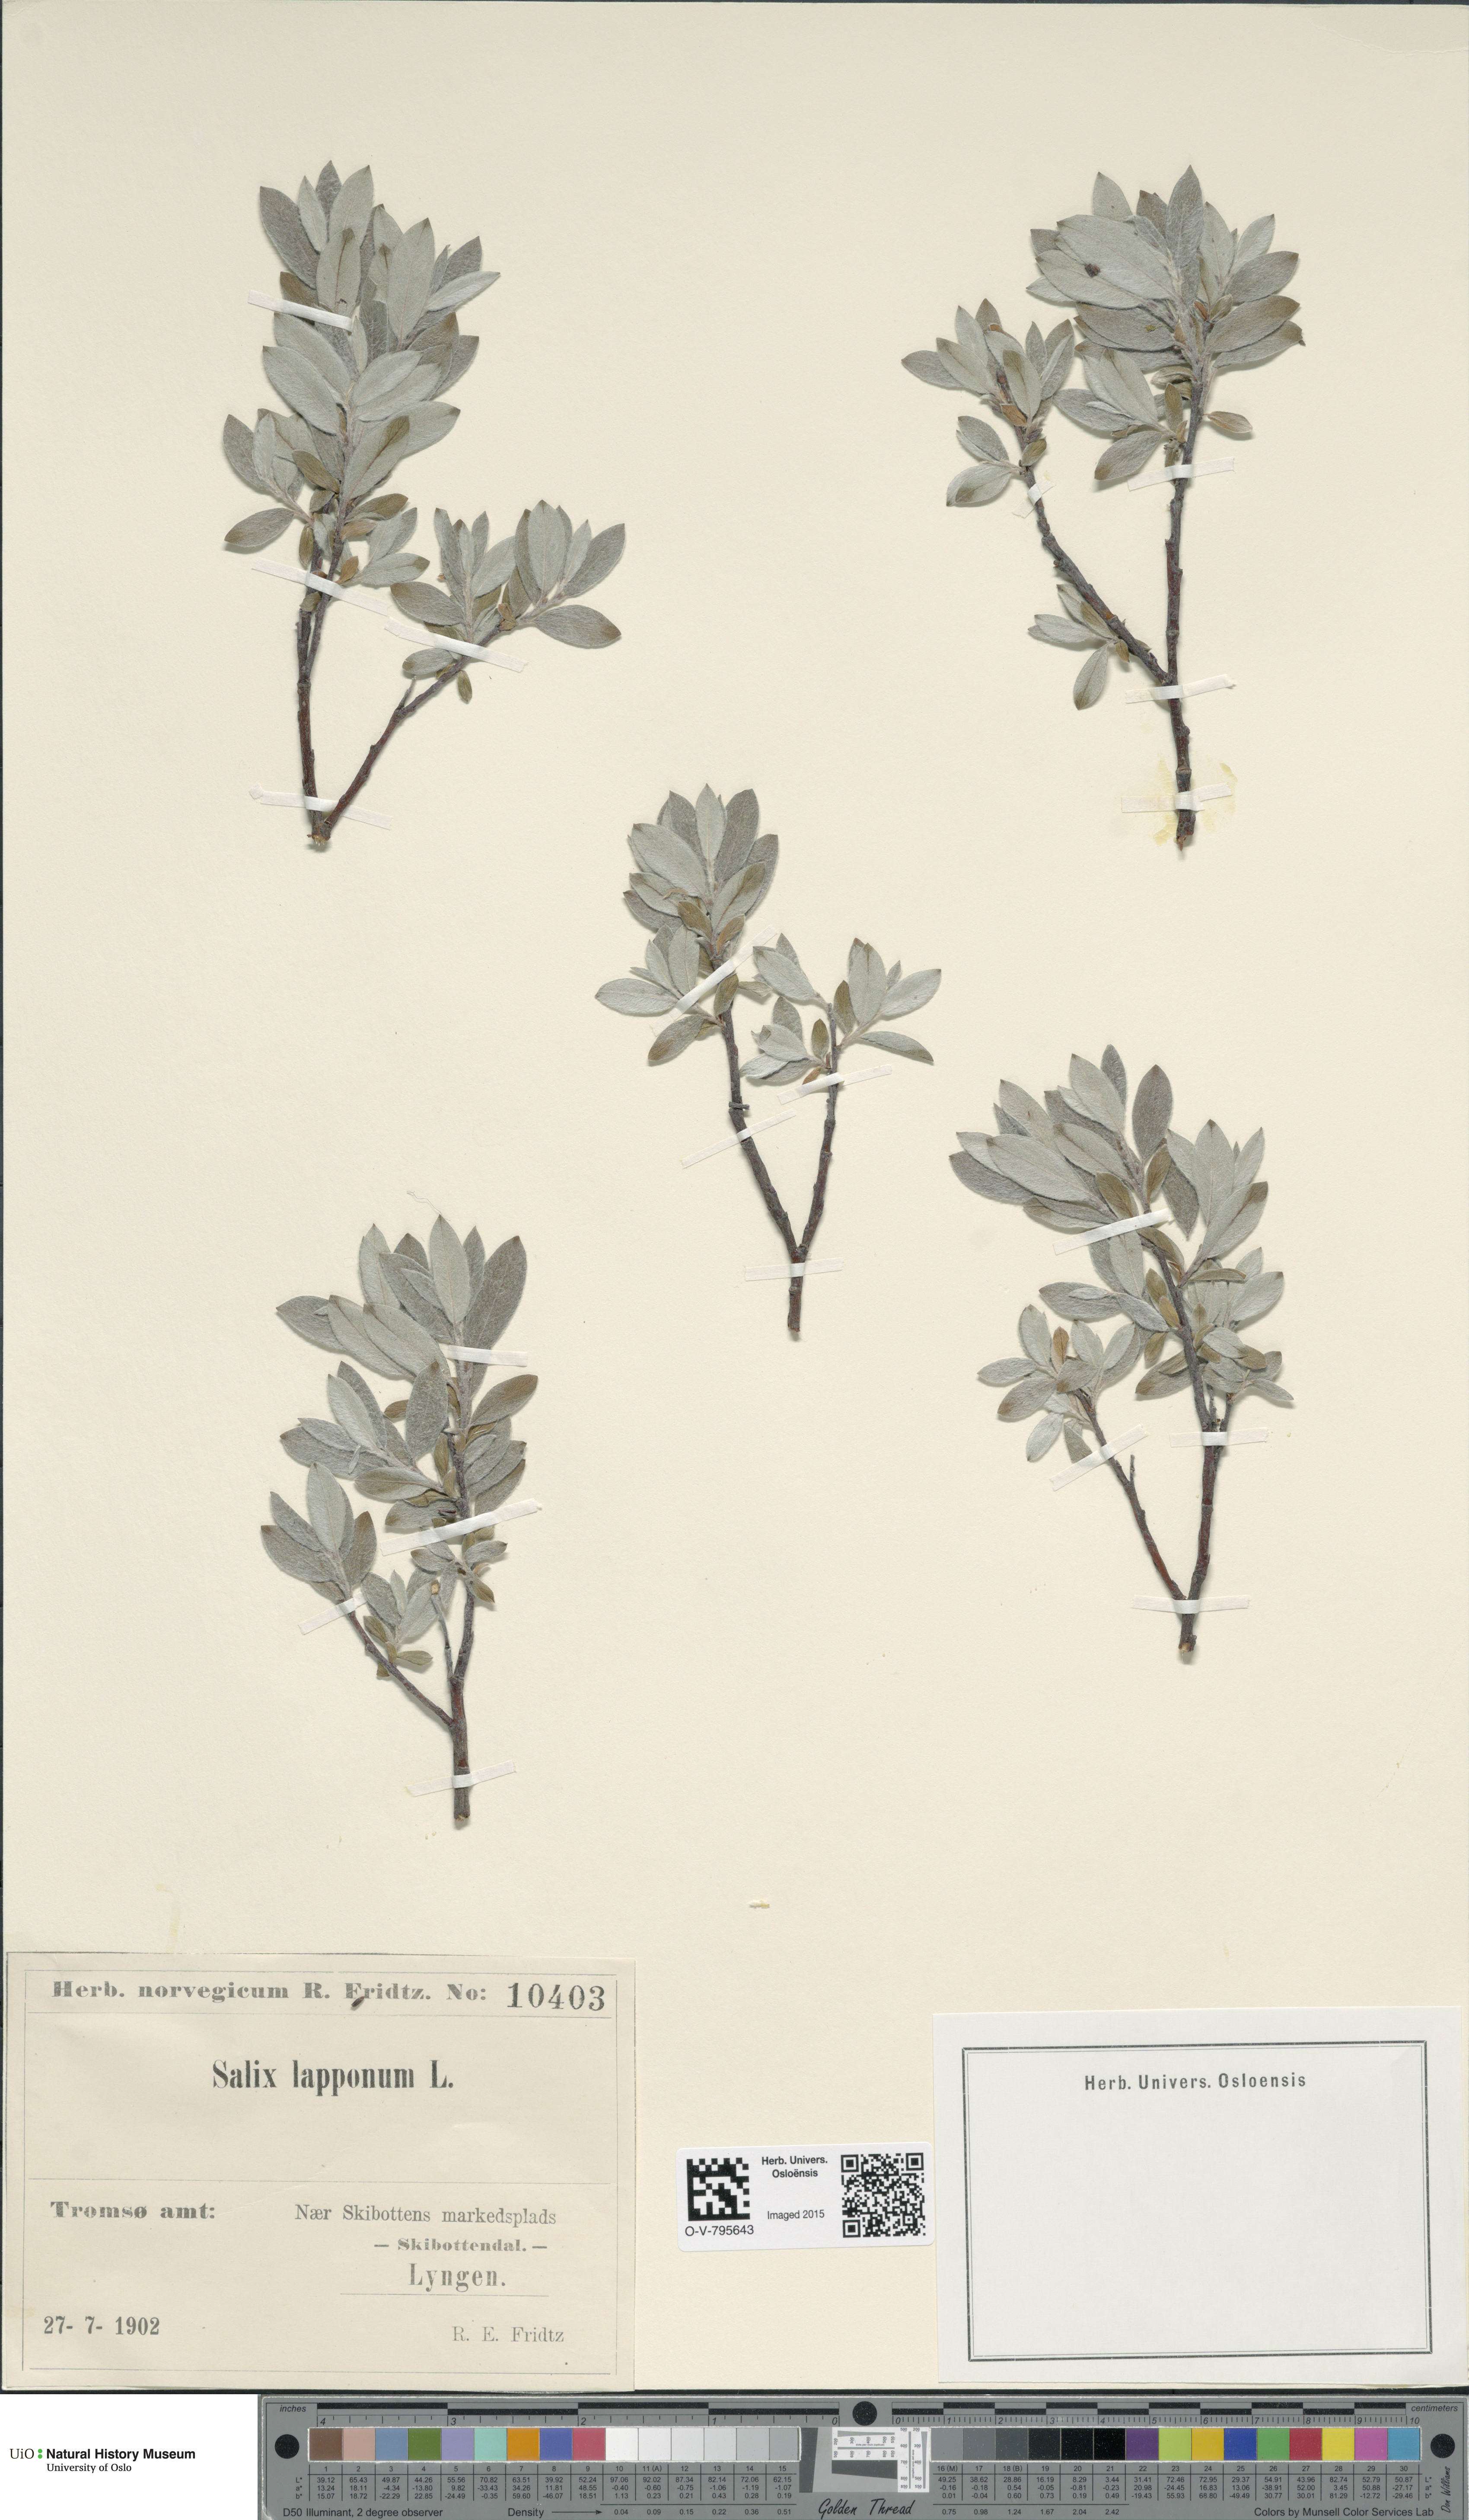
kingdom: Plantae
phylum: Tracheophyta
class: Magnoliopsida
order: Malpighiales
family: Salicaceae
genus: Salix
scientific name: Salix lapponum
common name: Downy willow
